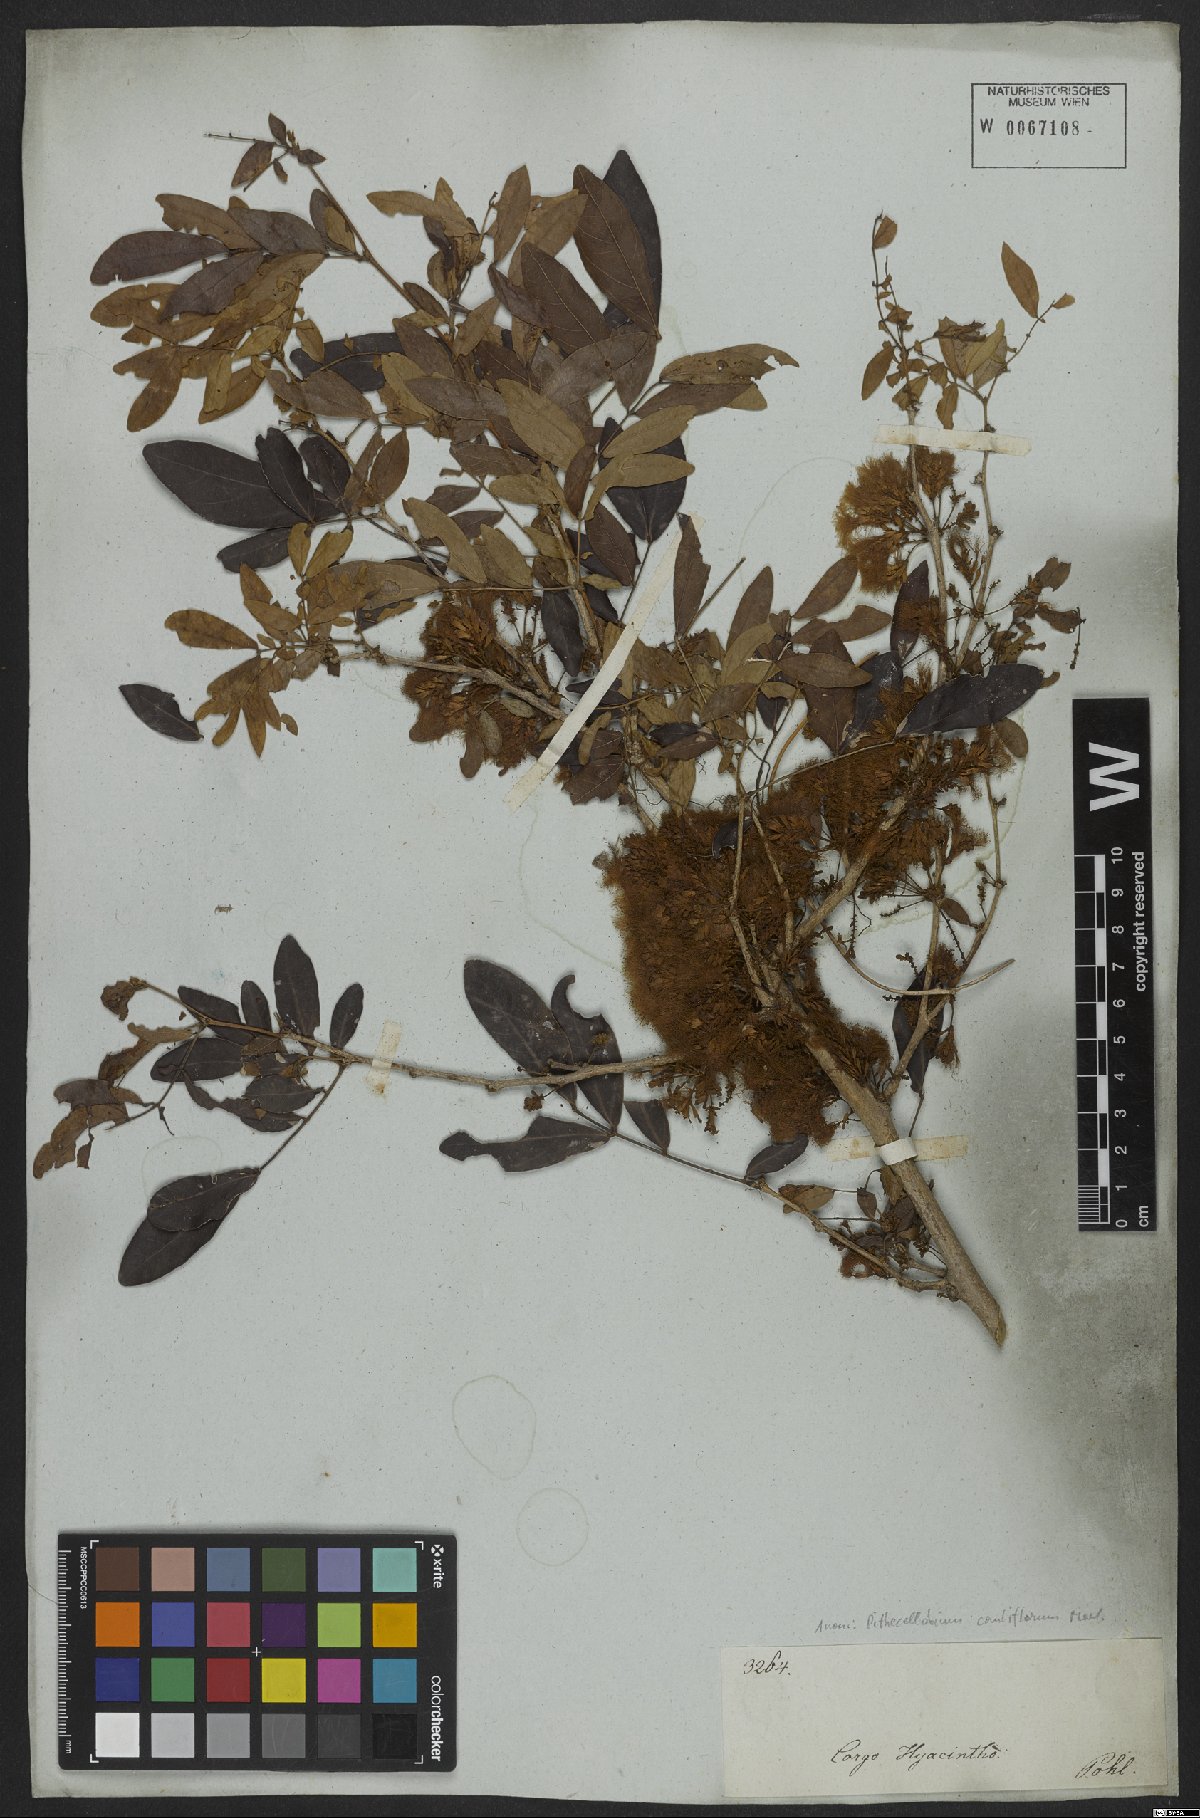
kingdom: Plantae
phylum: Tracheophyta
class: Magnoliopsida
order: Fabales
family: Fabaceae
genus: Zygia
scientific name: Zygia cauliflora
